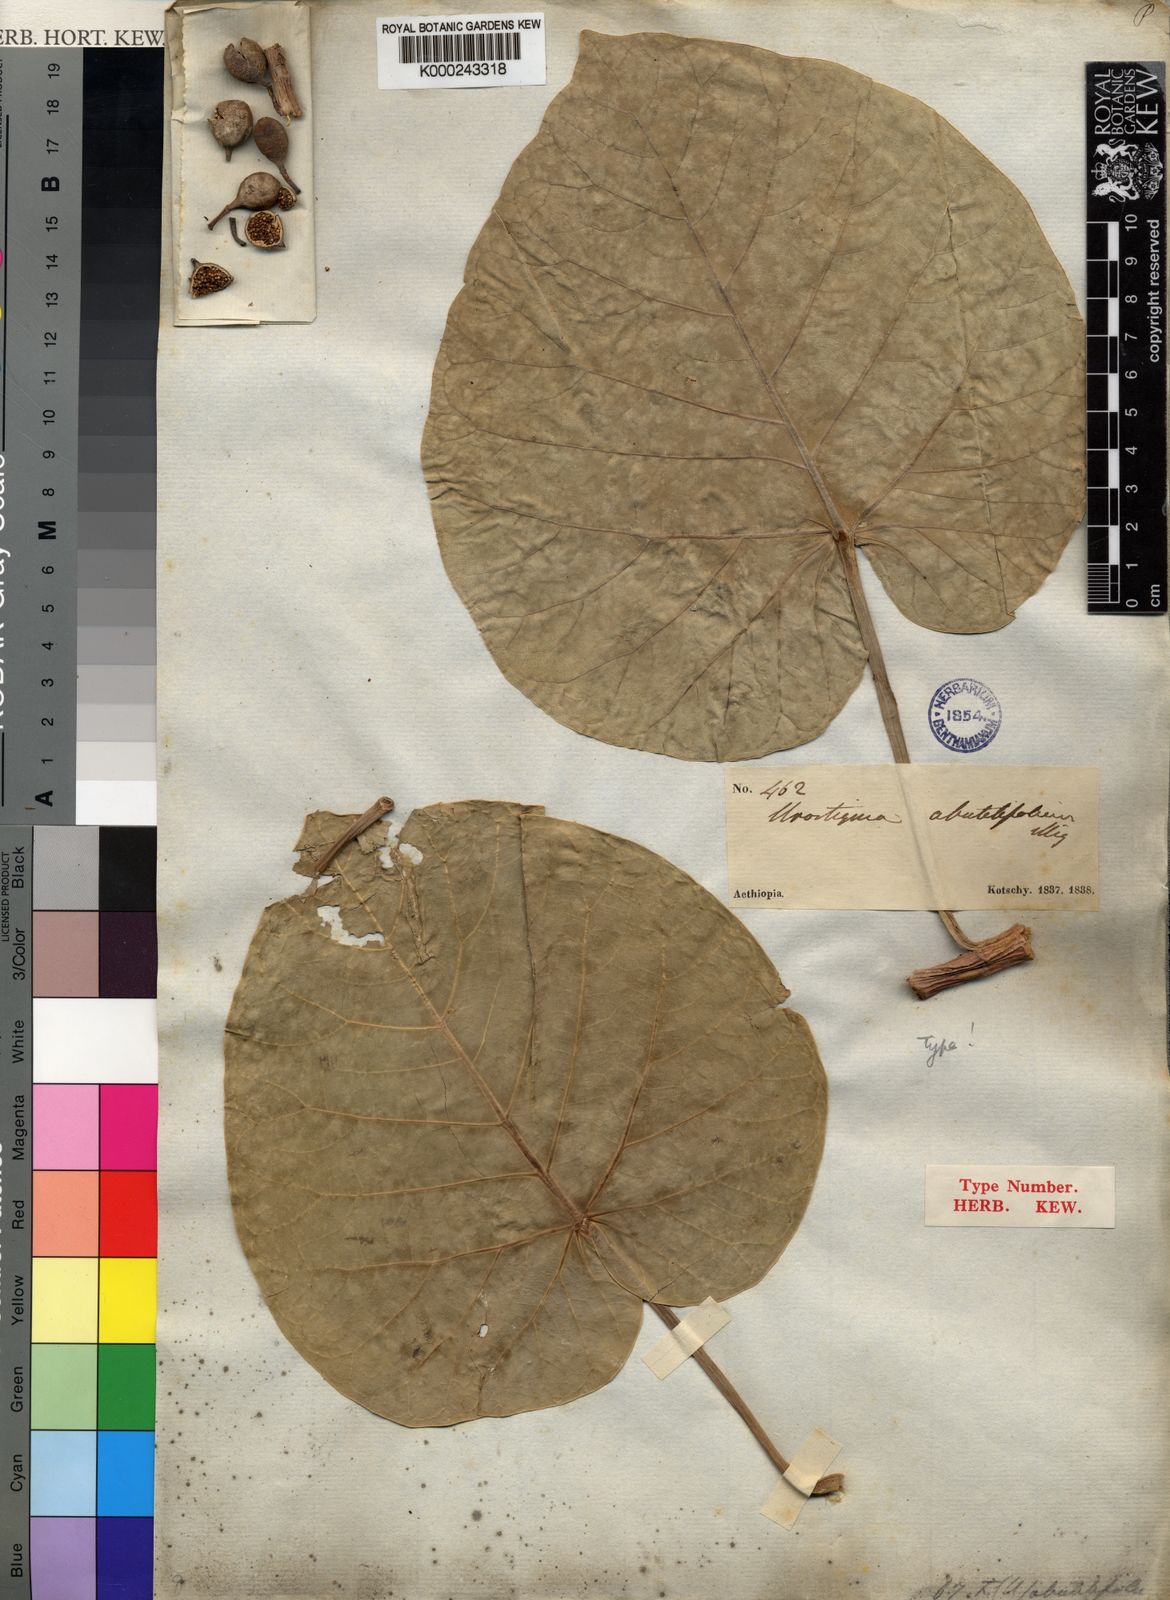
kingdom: Plantae
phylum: Tracheophyta
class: Magnoliopsida
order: Rosales
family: Moraceae
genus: Ficus
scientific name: Ficus abutilifolia
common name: Large-leaved rock fig
